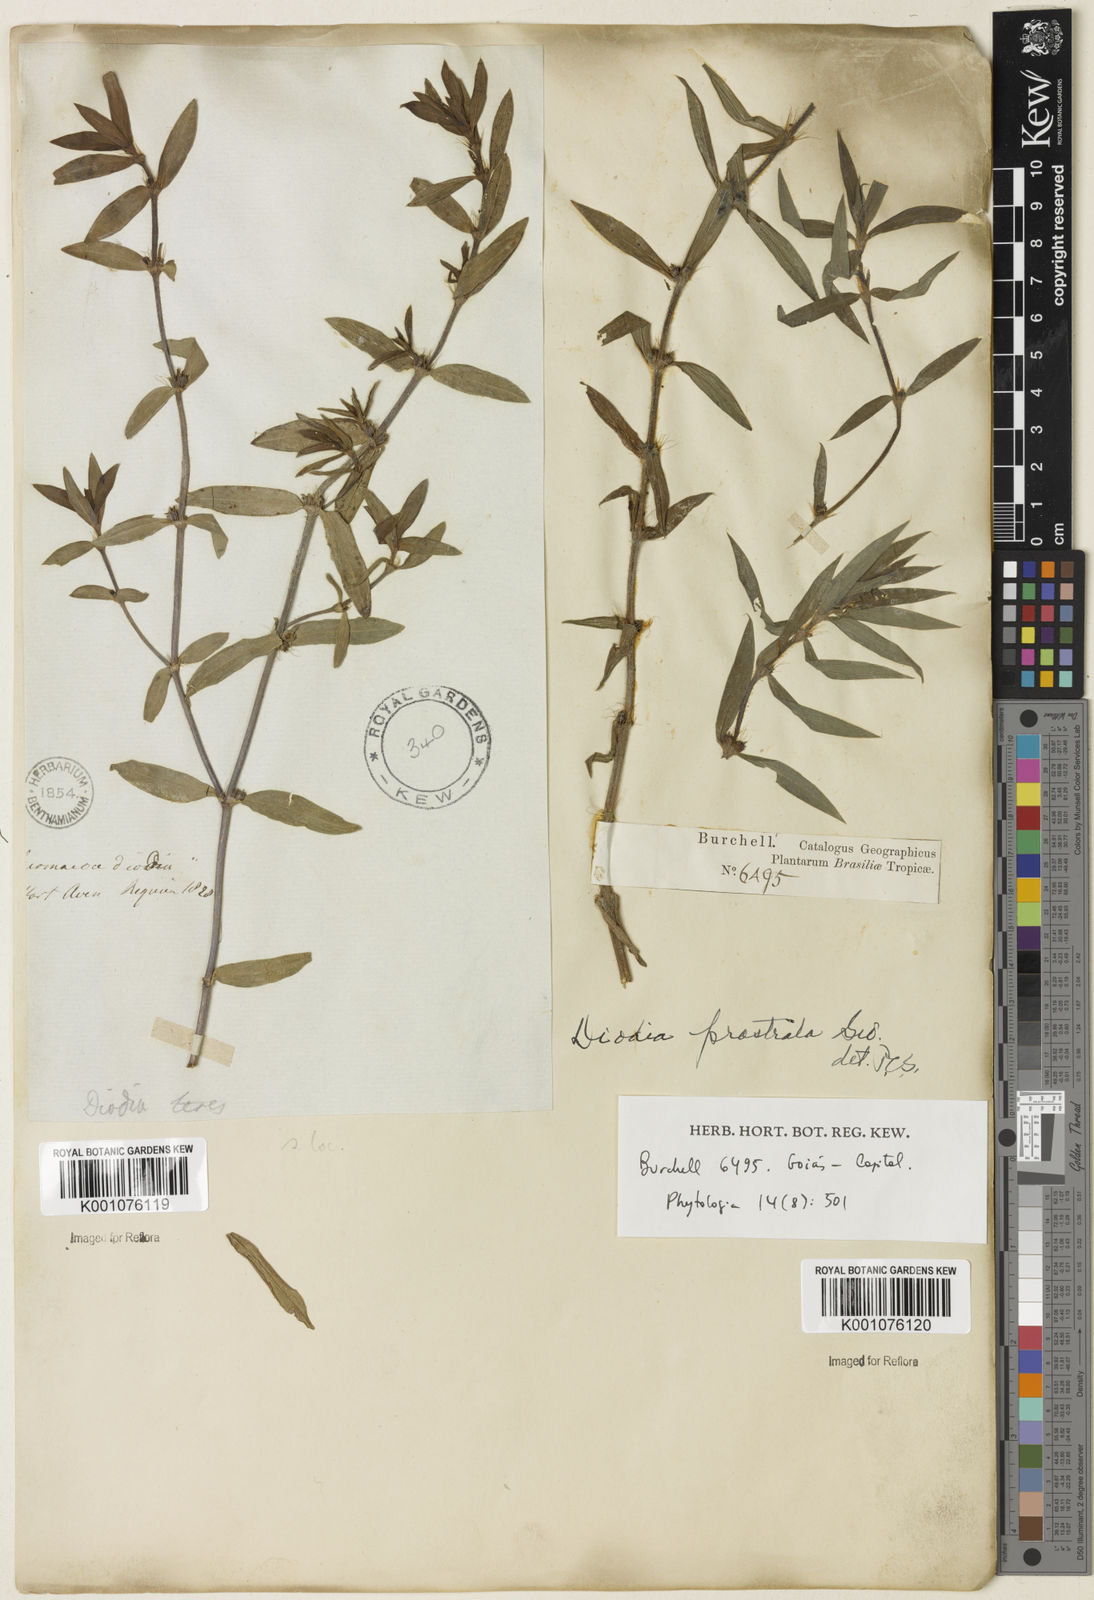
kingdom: Plantae
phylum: Tracheophyta
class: Magnoliopsida
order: Gentianales
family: Rubiaceae
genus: Hexasepalum
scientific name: Hexasepalum teres
